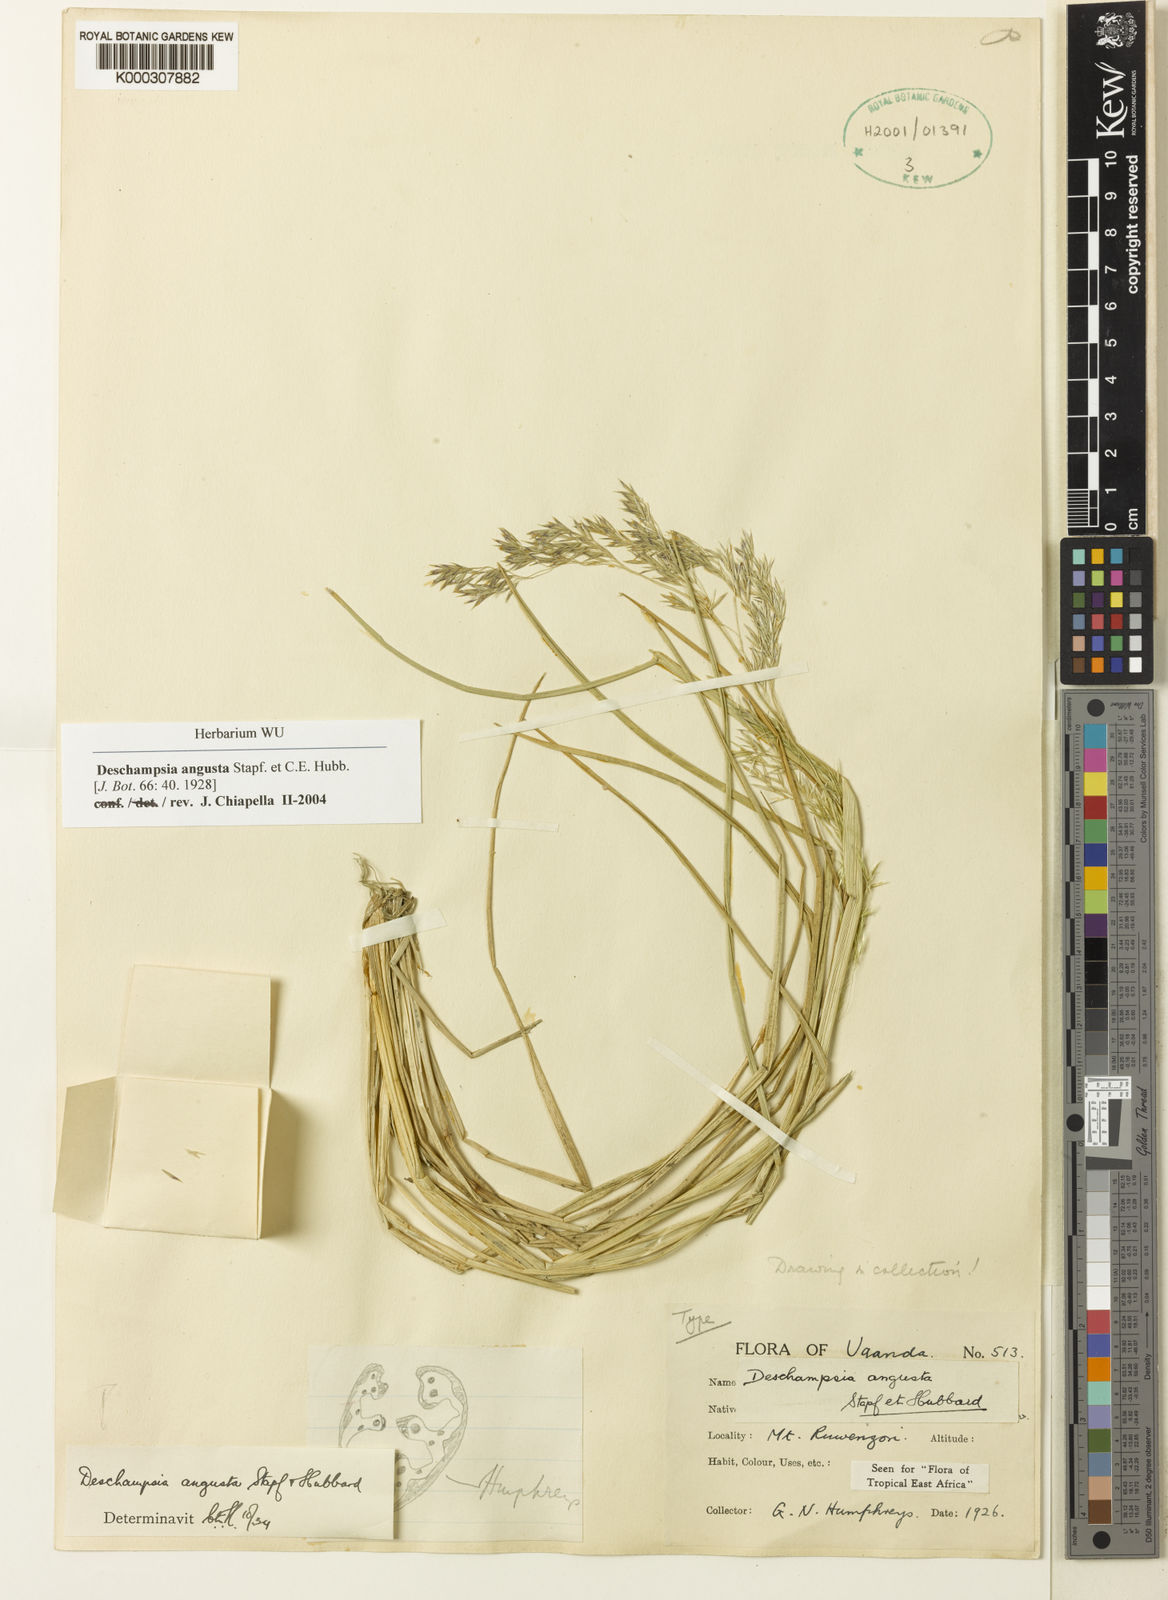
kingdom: Plantae
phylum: Tracheophyta
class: Liliopsida
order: Poales
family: Poaceae
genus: Deschampsia
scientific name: Deschampsia angusta
